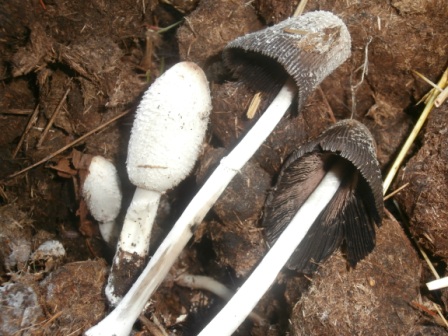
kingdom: Fungi
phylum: Basidiomycota
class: Agaricomycetes
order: Agaricales
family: Agaricaceae
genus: Coprinus
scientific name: Coprinus sterquilinus
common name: møg-parykhat
